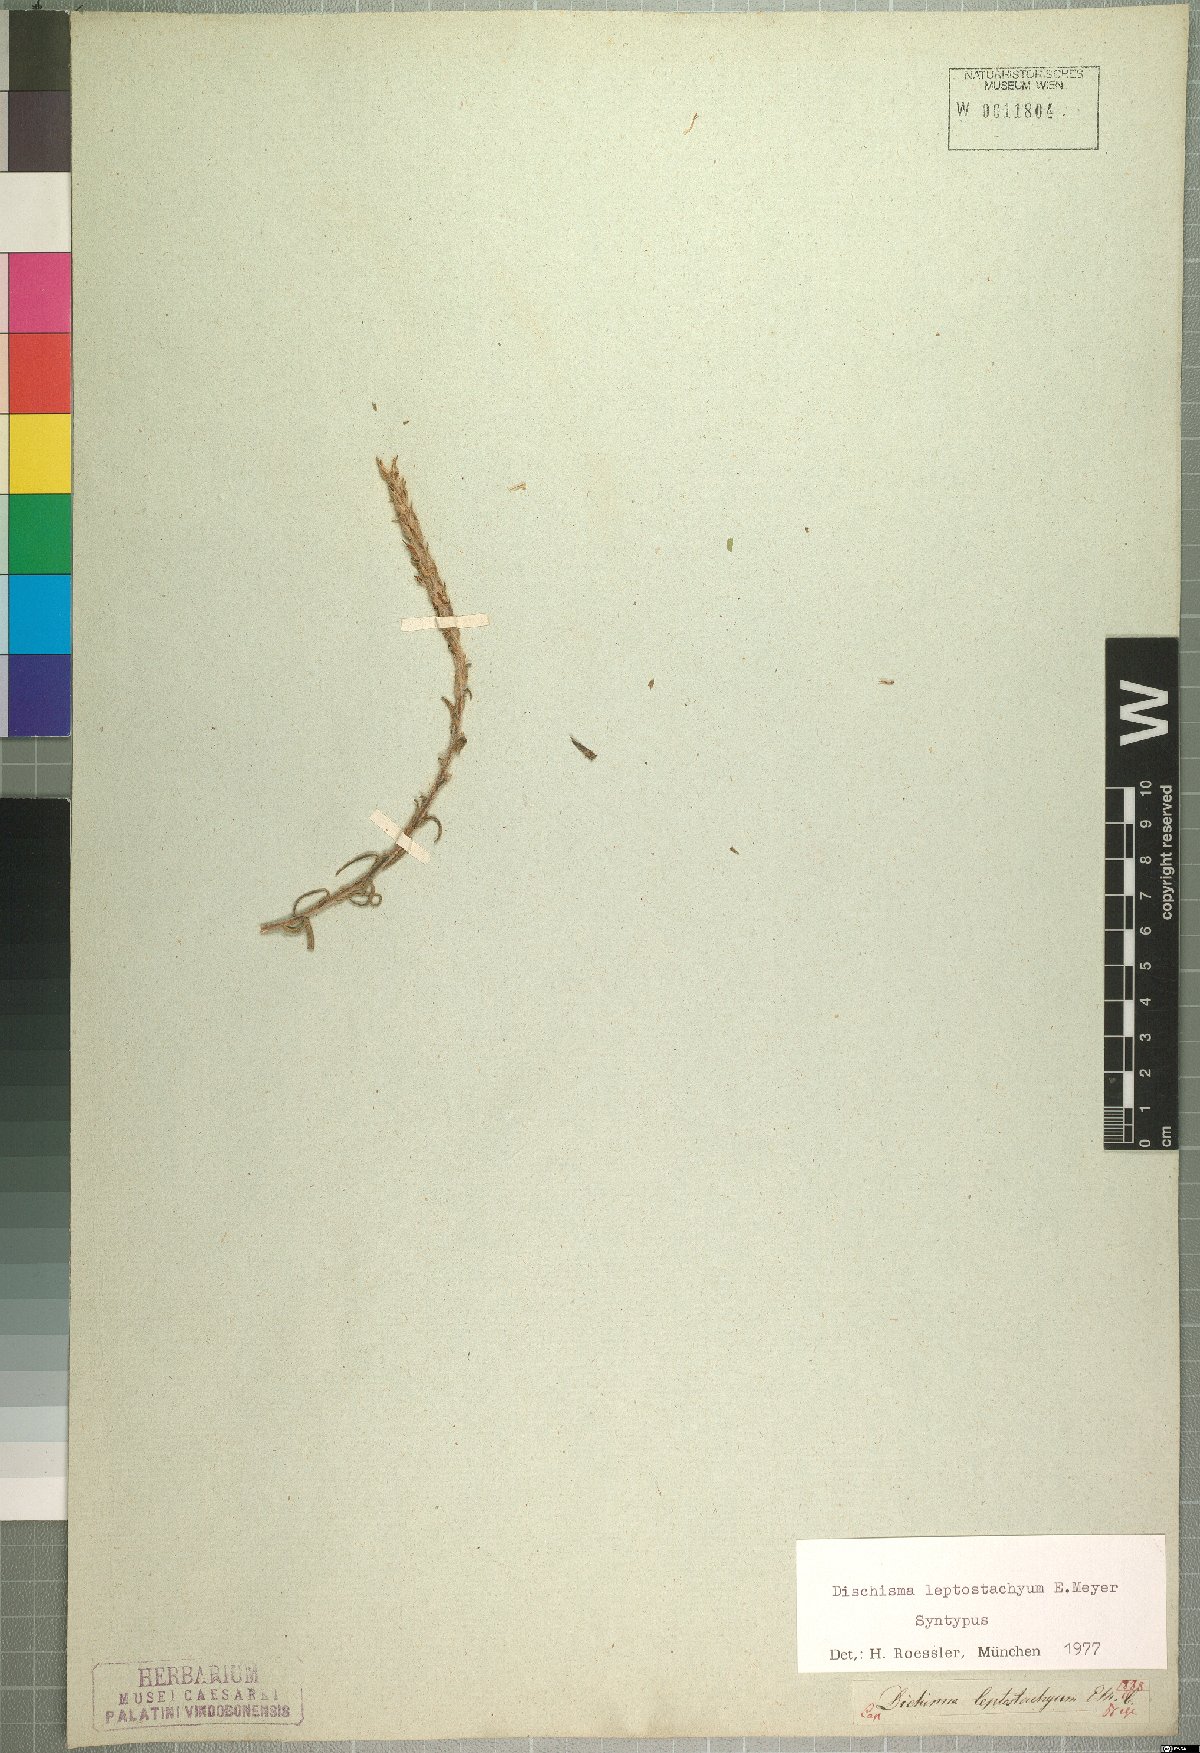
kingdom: Plantae
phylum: Tracheophyta
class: Magnoliopsida
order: Lamiales
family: Scrophulariaceae
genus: Dischisma
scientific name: Dischisma leptostachyum
